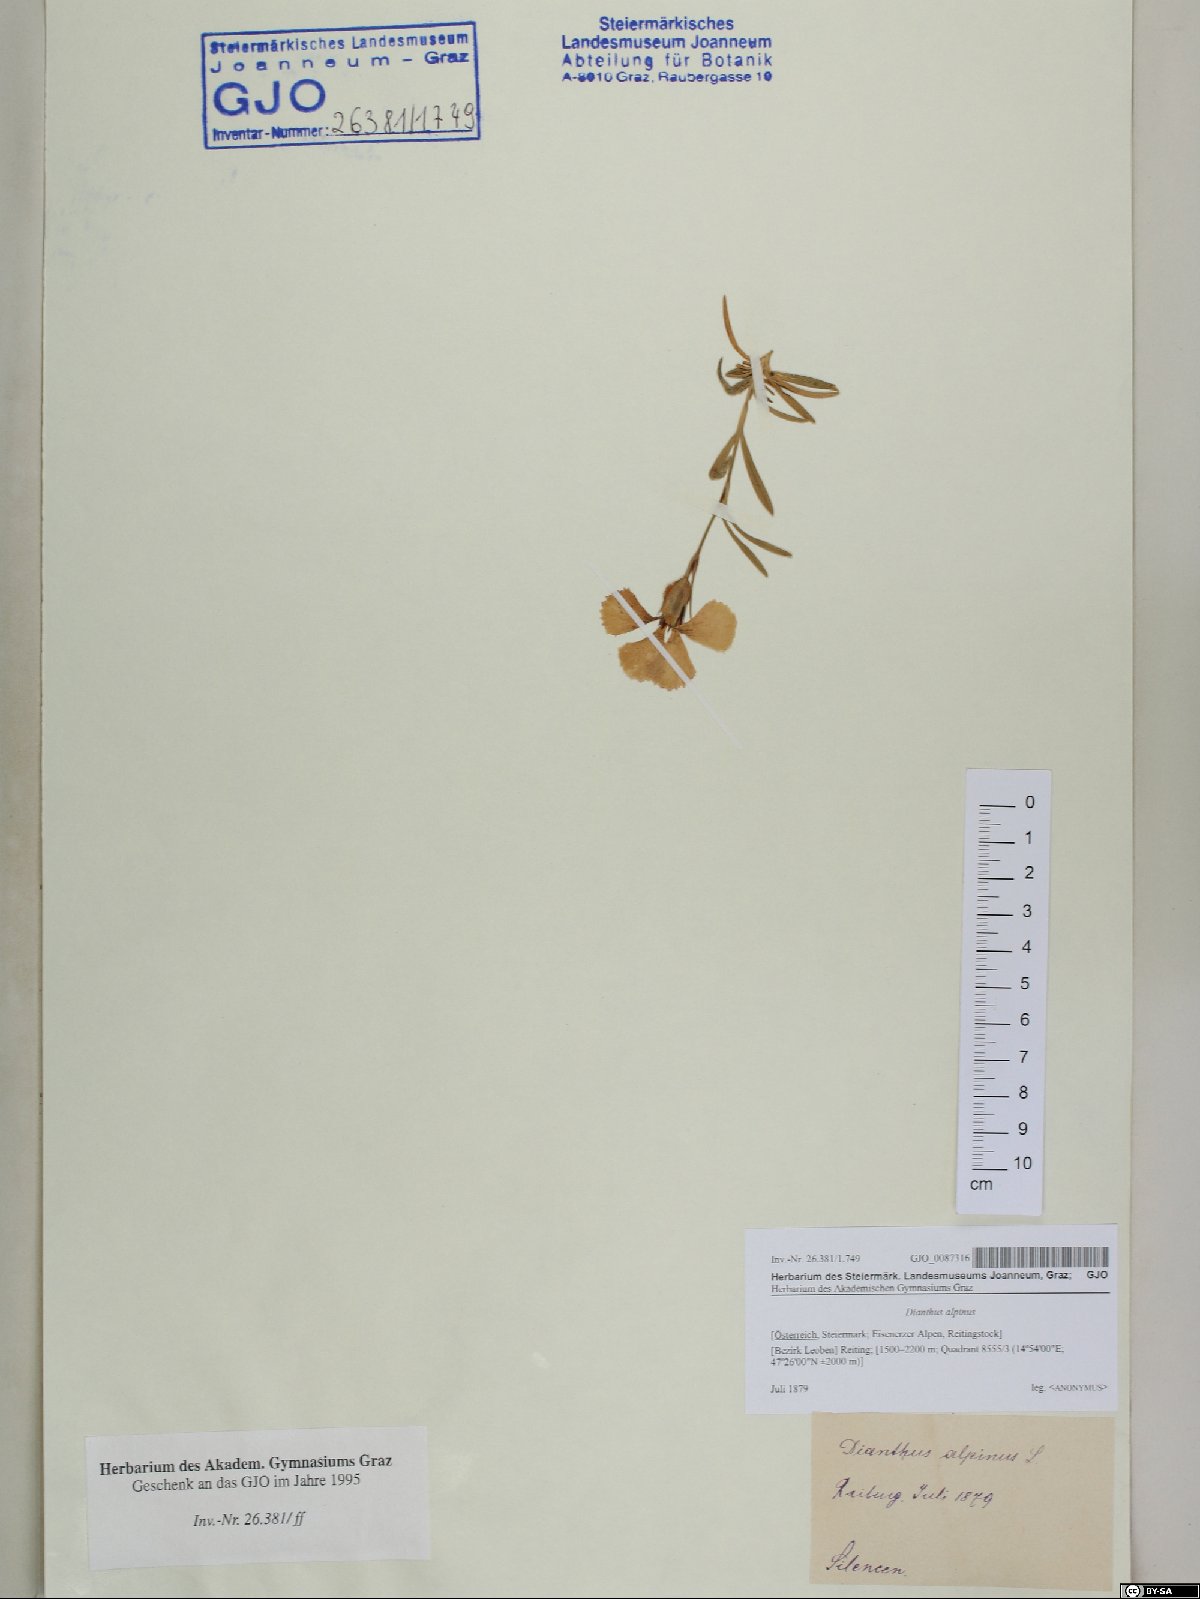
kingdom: Plantae
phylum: Tracheophyta
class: Magnoliopsida
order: Caryophyllales
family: Caryophyllaceae
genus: Dianthus
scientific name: Dianthus alpinus
